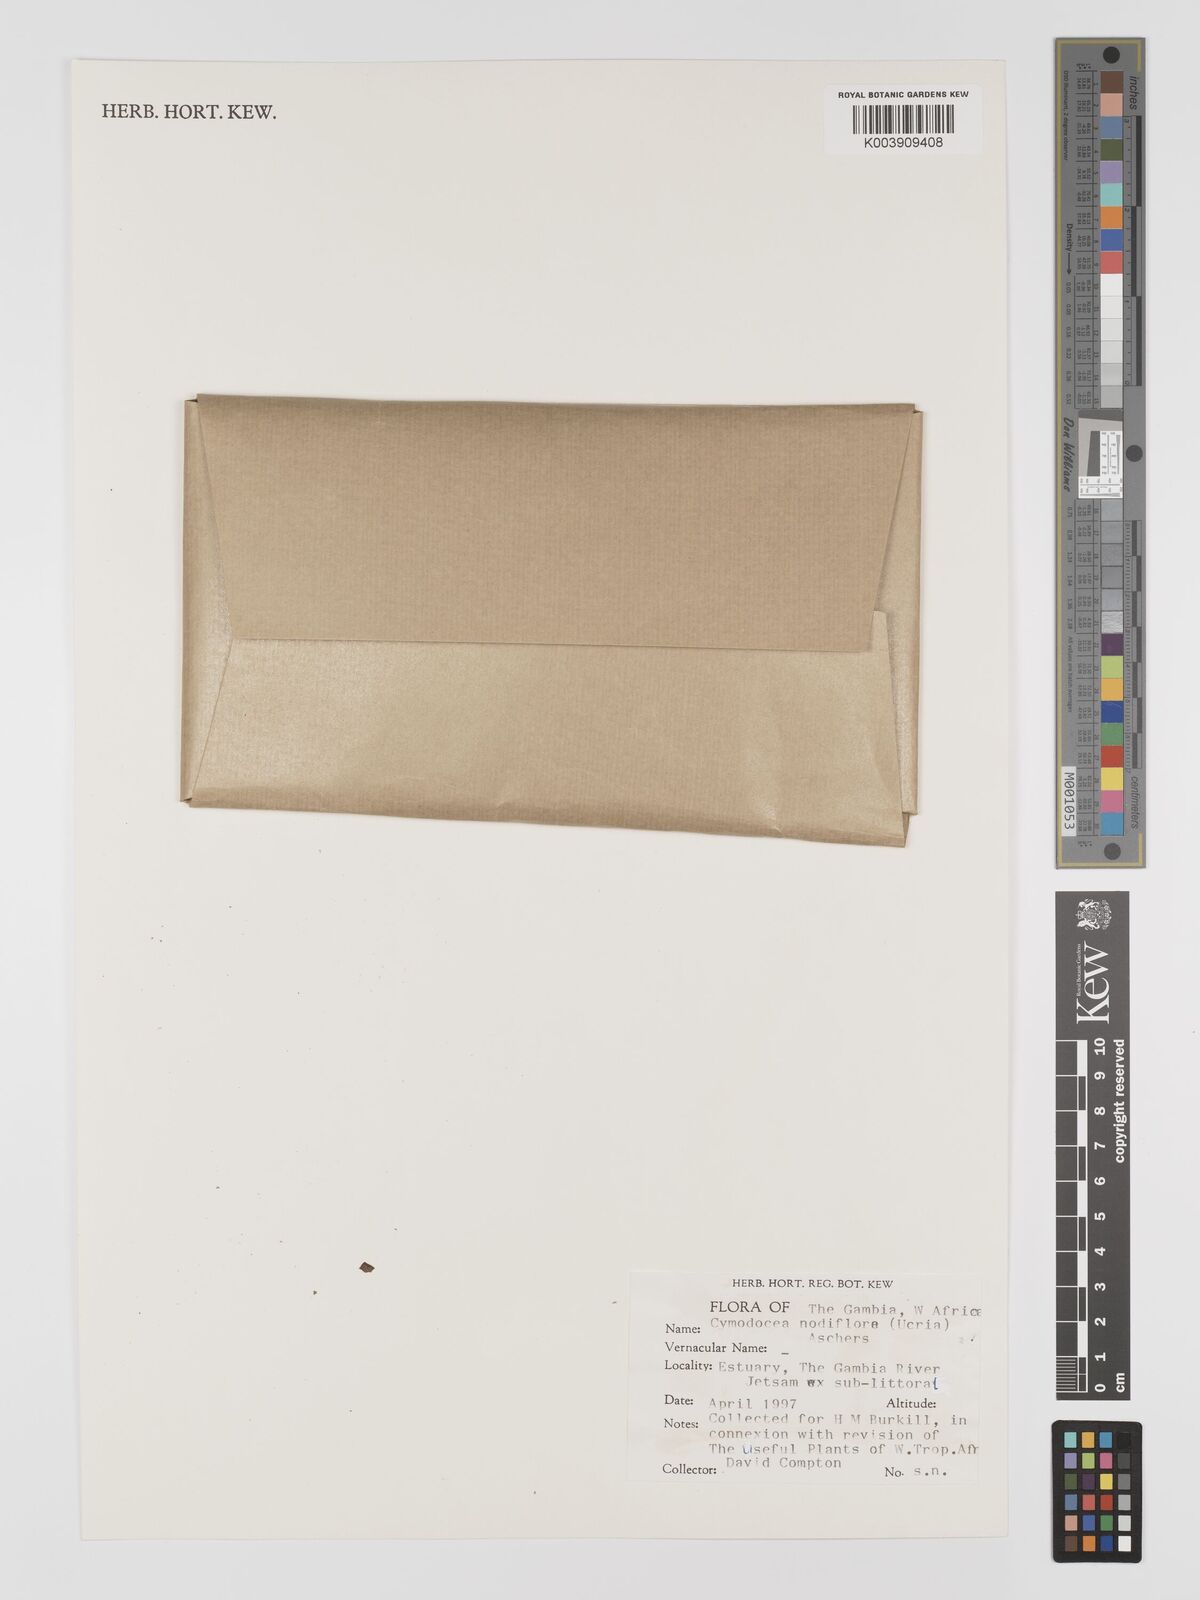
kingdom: Plantae
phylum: Tracheophyta
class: Liliopsida
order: Alismatales
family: Cymodoceaceae
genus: Cymodocea
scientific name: Cymodocea nodosa
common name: Slender seagrass
